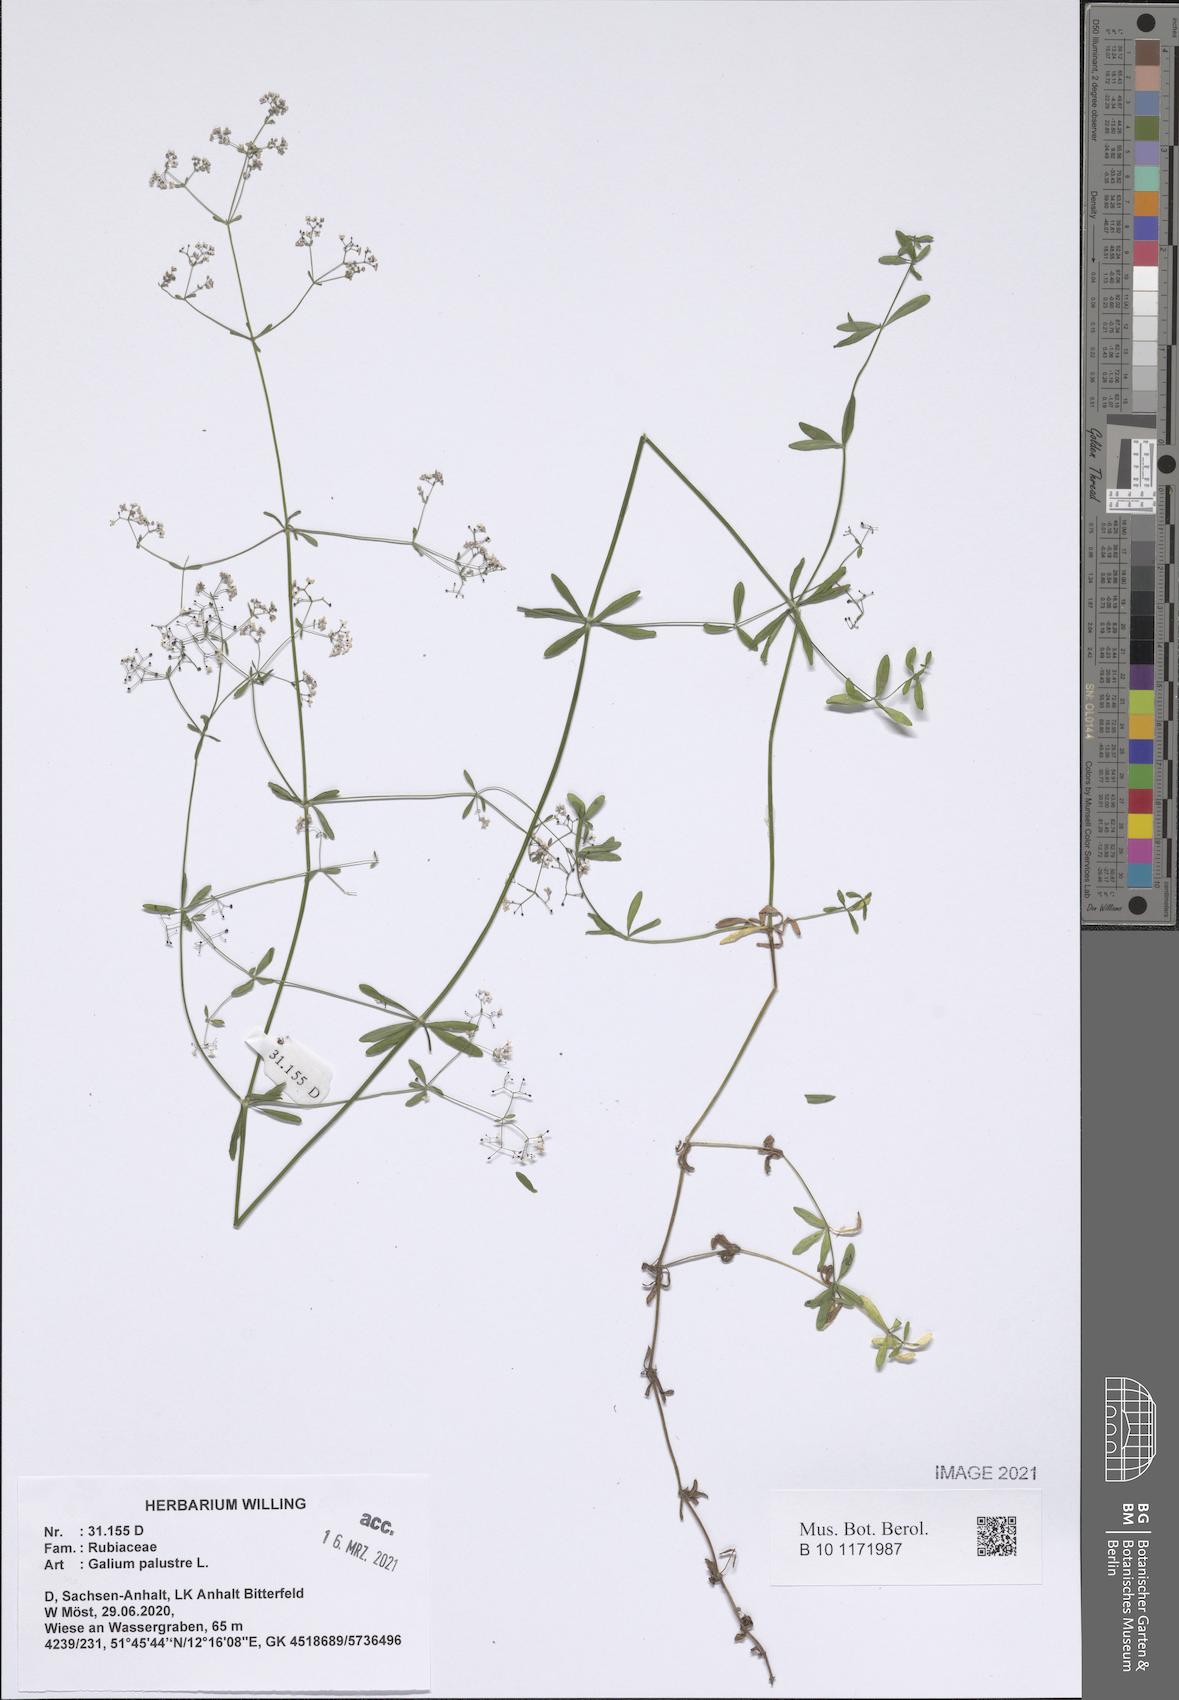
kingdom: Plantae
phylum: Tracheophyta
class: Magnoliopsida
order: Gentianales
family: Rubiaceae
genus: Galium
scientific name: Galium palustre
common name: Common marsh-bedstraw
